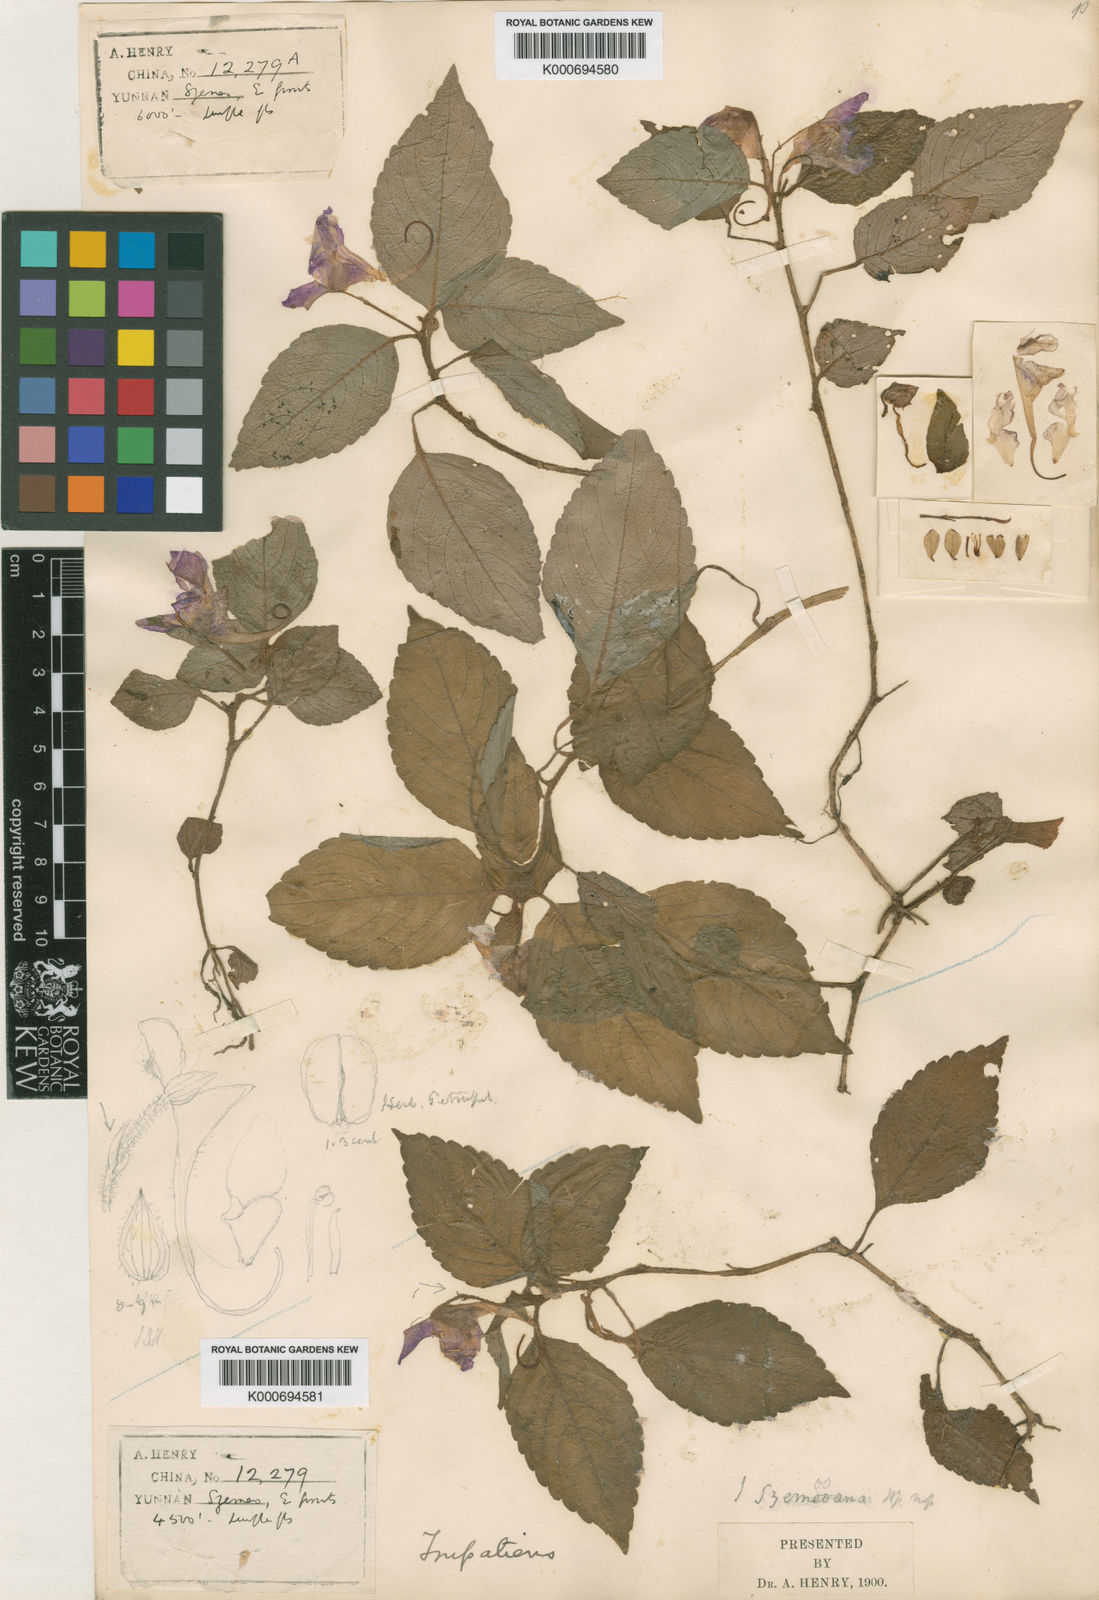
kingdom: Plantae
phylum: Tracheophyta
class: Magnoliopsida
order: Ericales
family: Balsaminaceae
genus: Impatiens
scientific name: Impatiens
